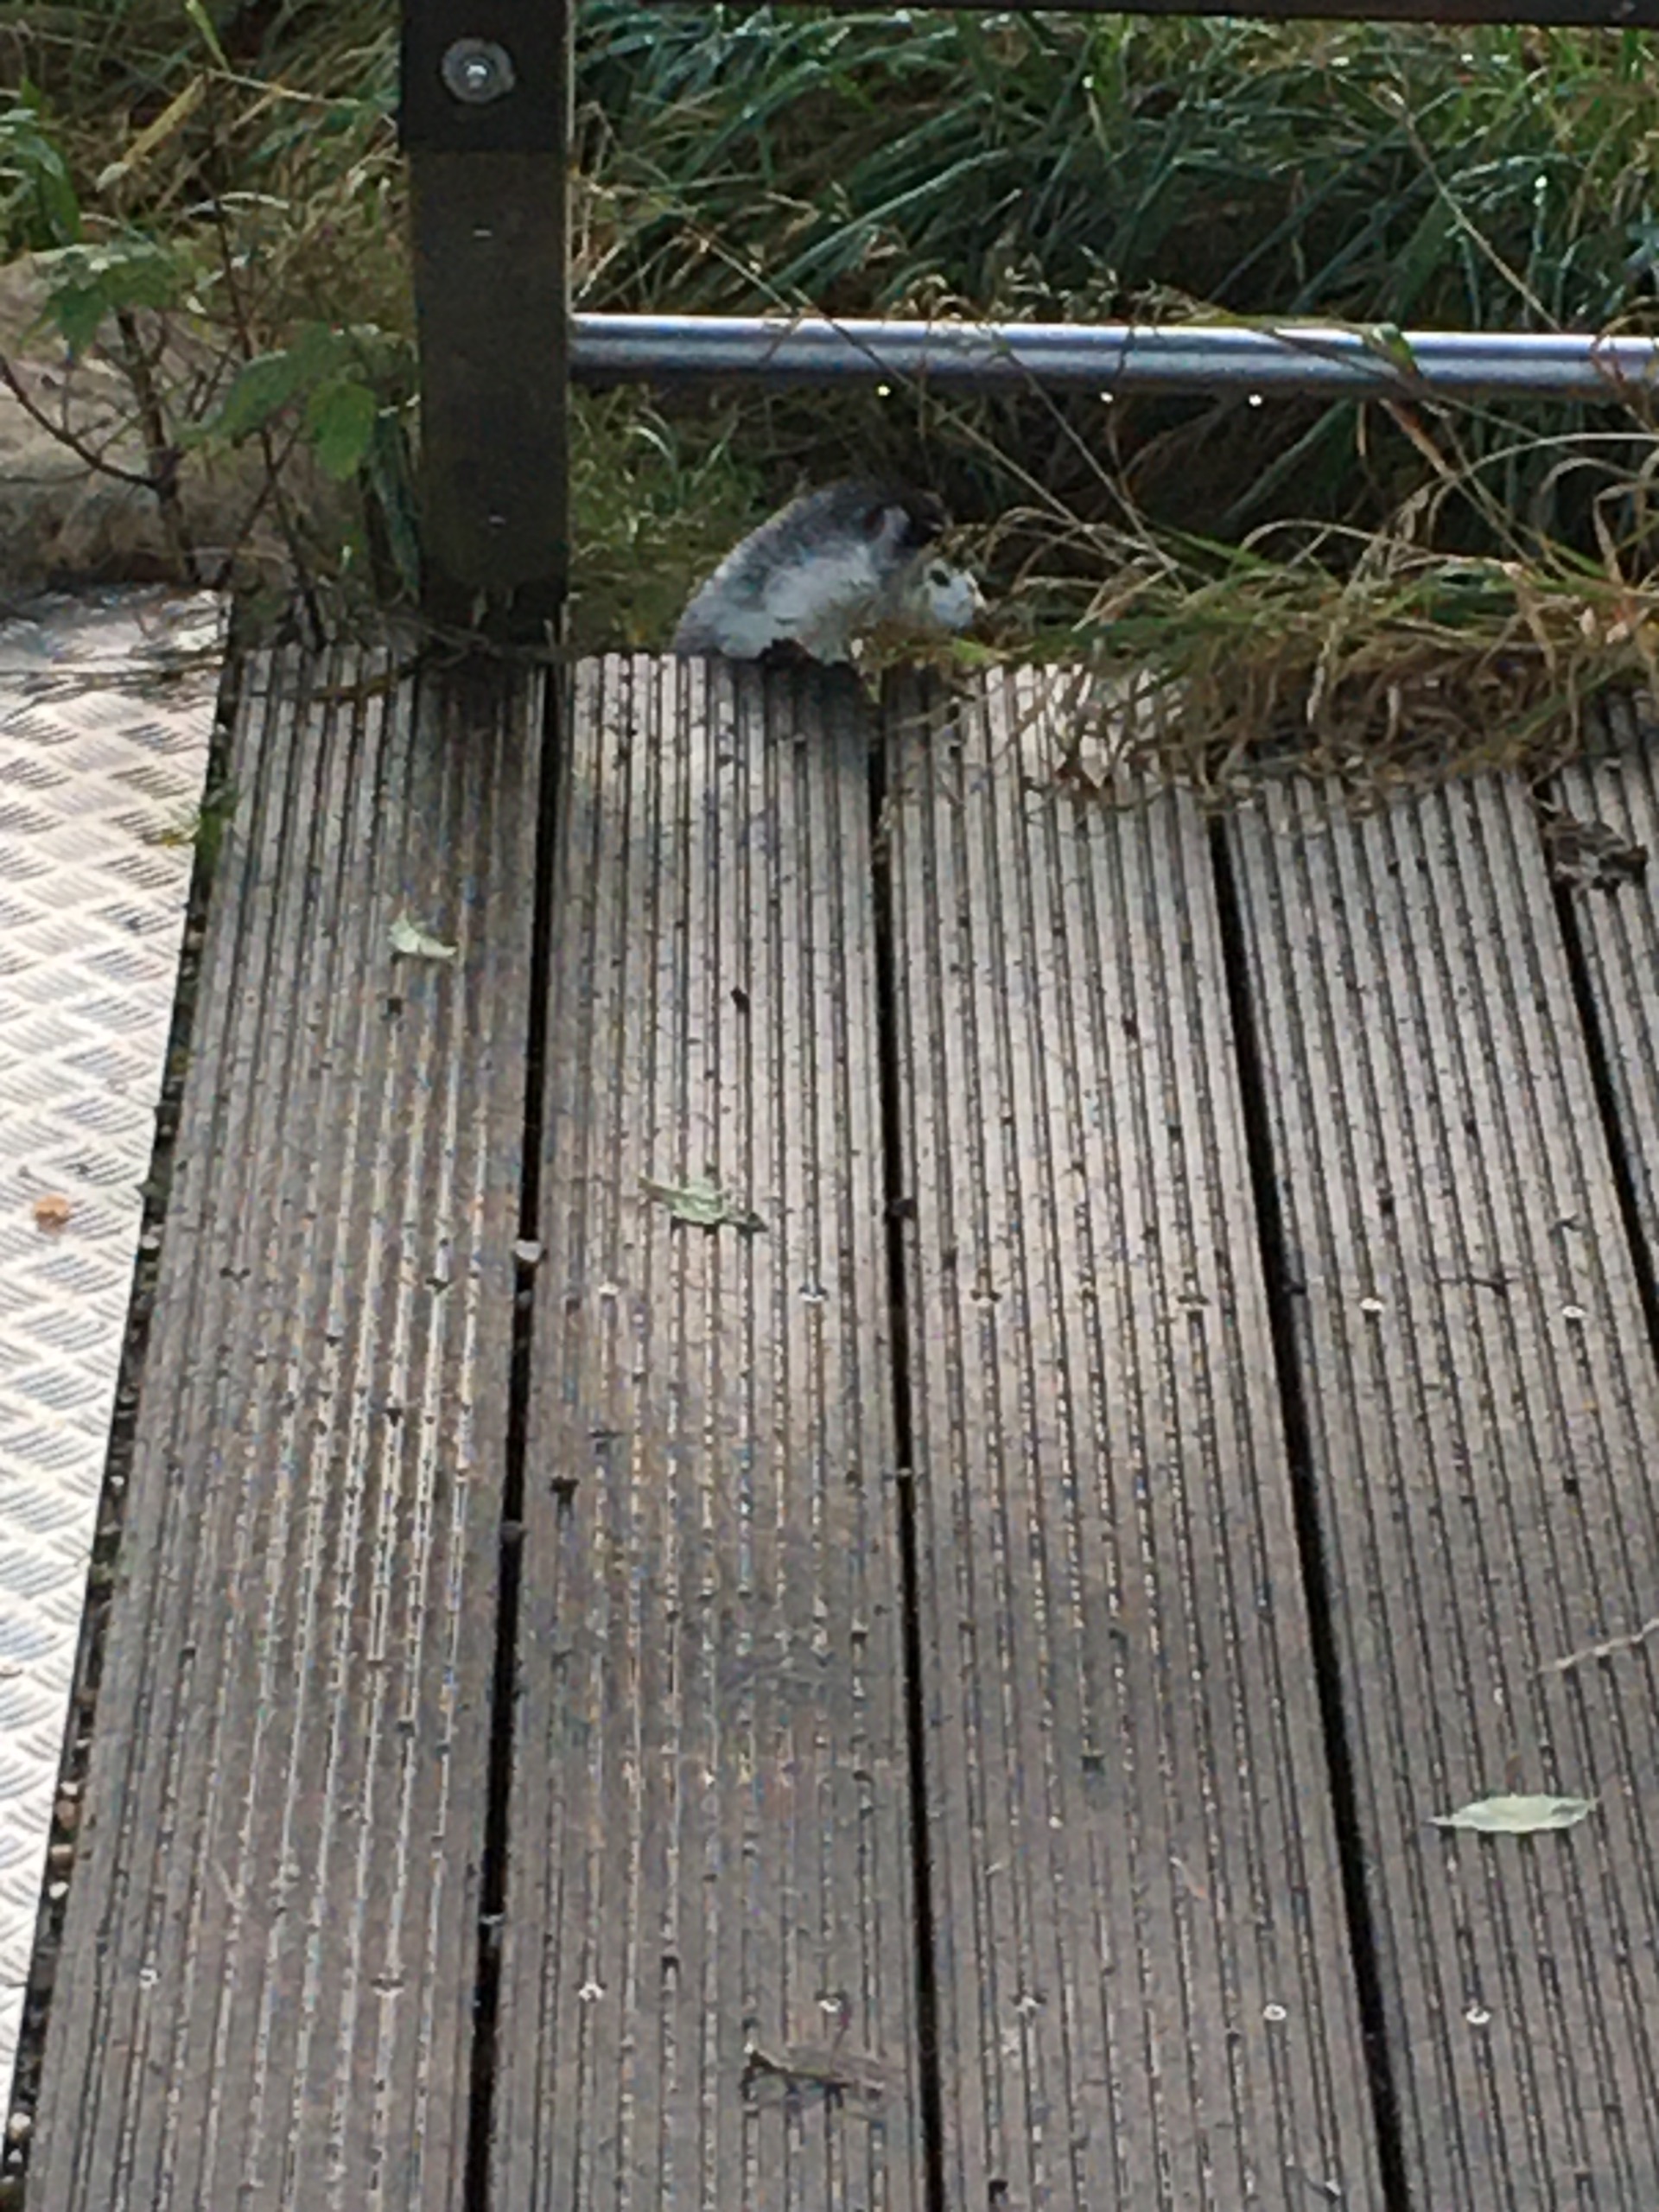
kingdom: Animalia
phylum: Chordata
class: Mammalia
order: Carnivora
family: Mustelidae
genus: Mustela
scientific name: Mustela vison
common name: Mink
